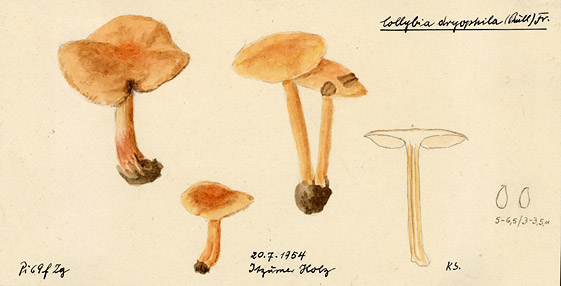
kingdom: Fungi
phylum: Basidiomycota
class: Agaricomycetes
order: Agaricales
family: Omphalotaceae
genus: Gymnopus
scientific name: Gymnopus dryophilus
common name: Penny top
